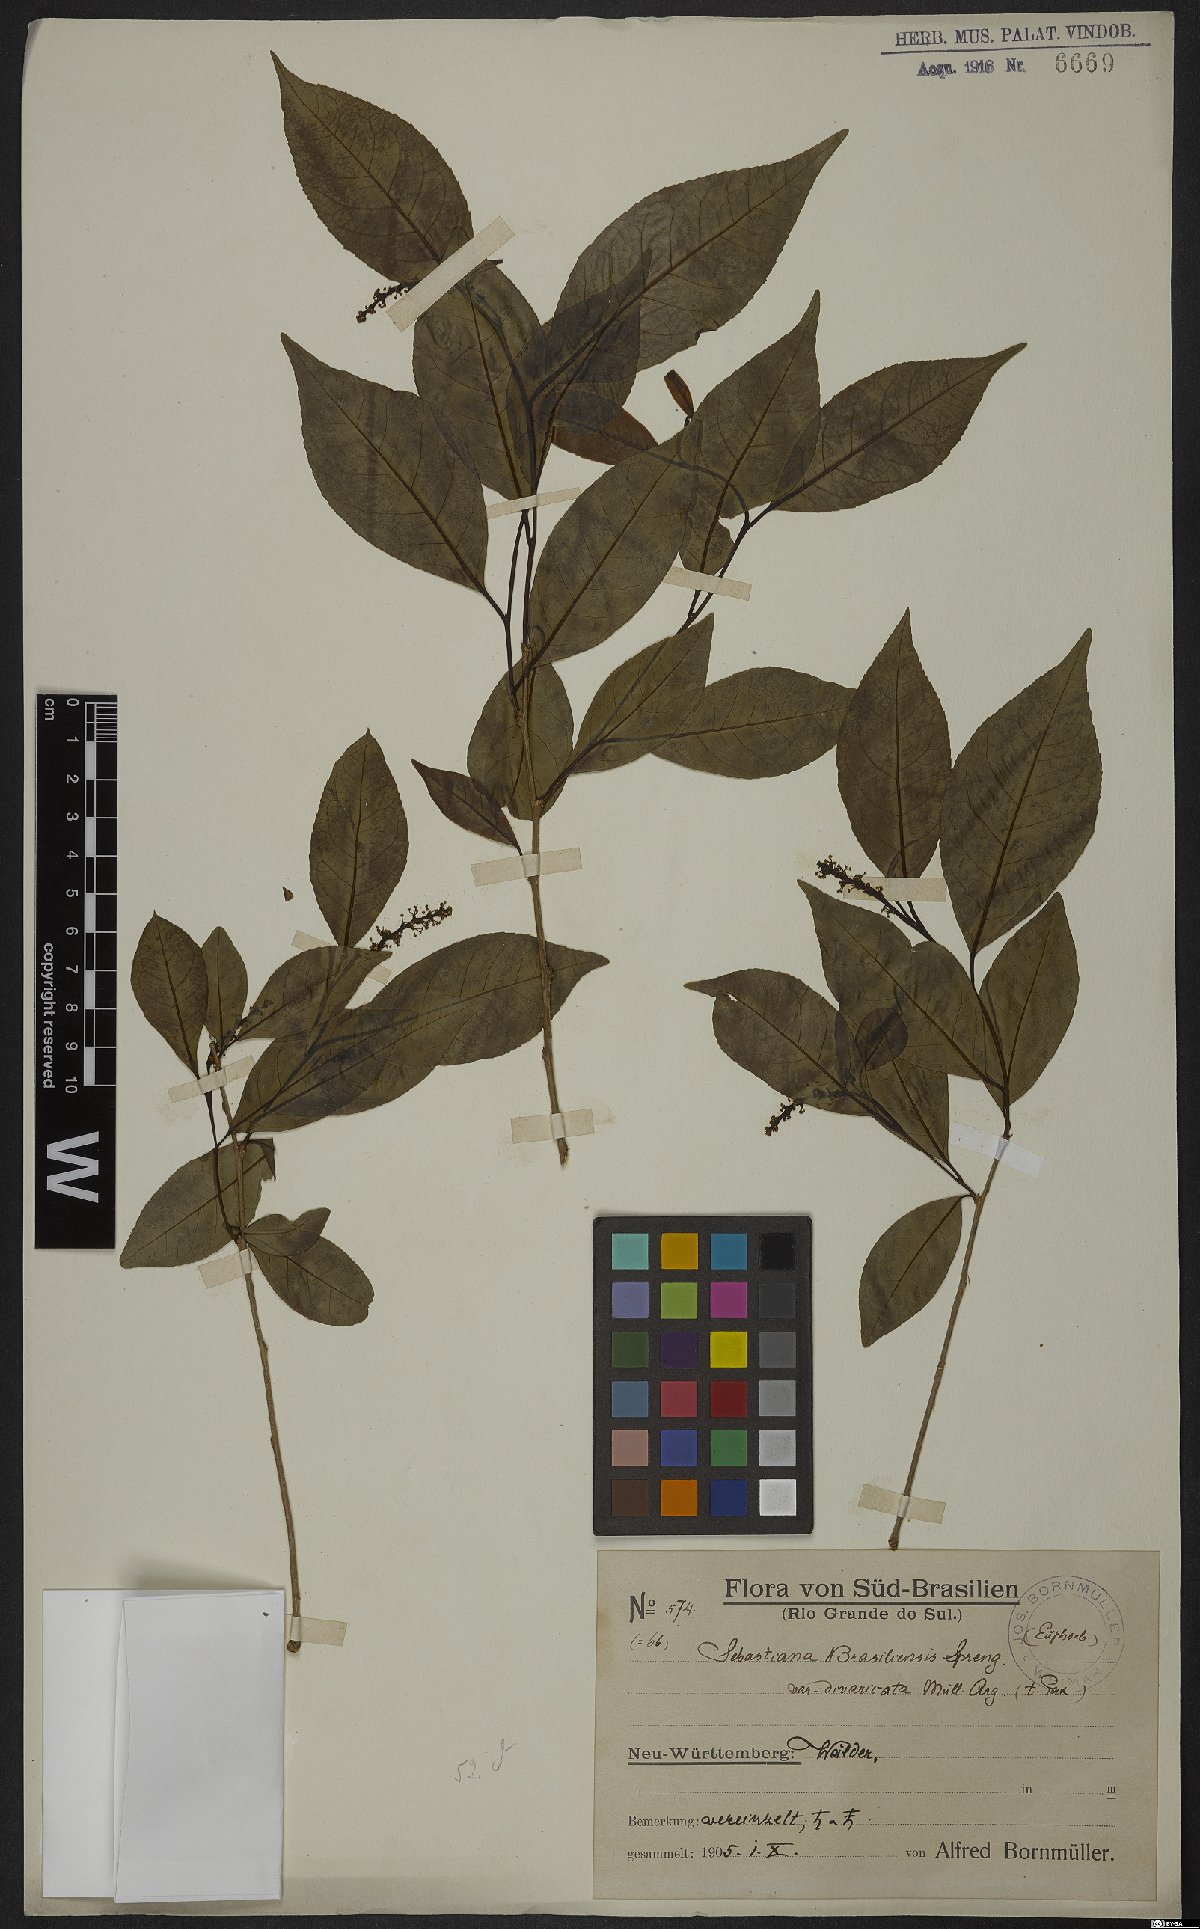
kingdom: Plantae
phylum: Tracheophyta
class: Magnoliopsida
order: Malpighiales
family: Euphorbiaceae
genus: Sebastiania
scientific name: Sebastiania ramosissima
